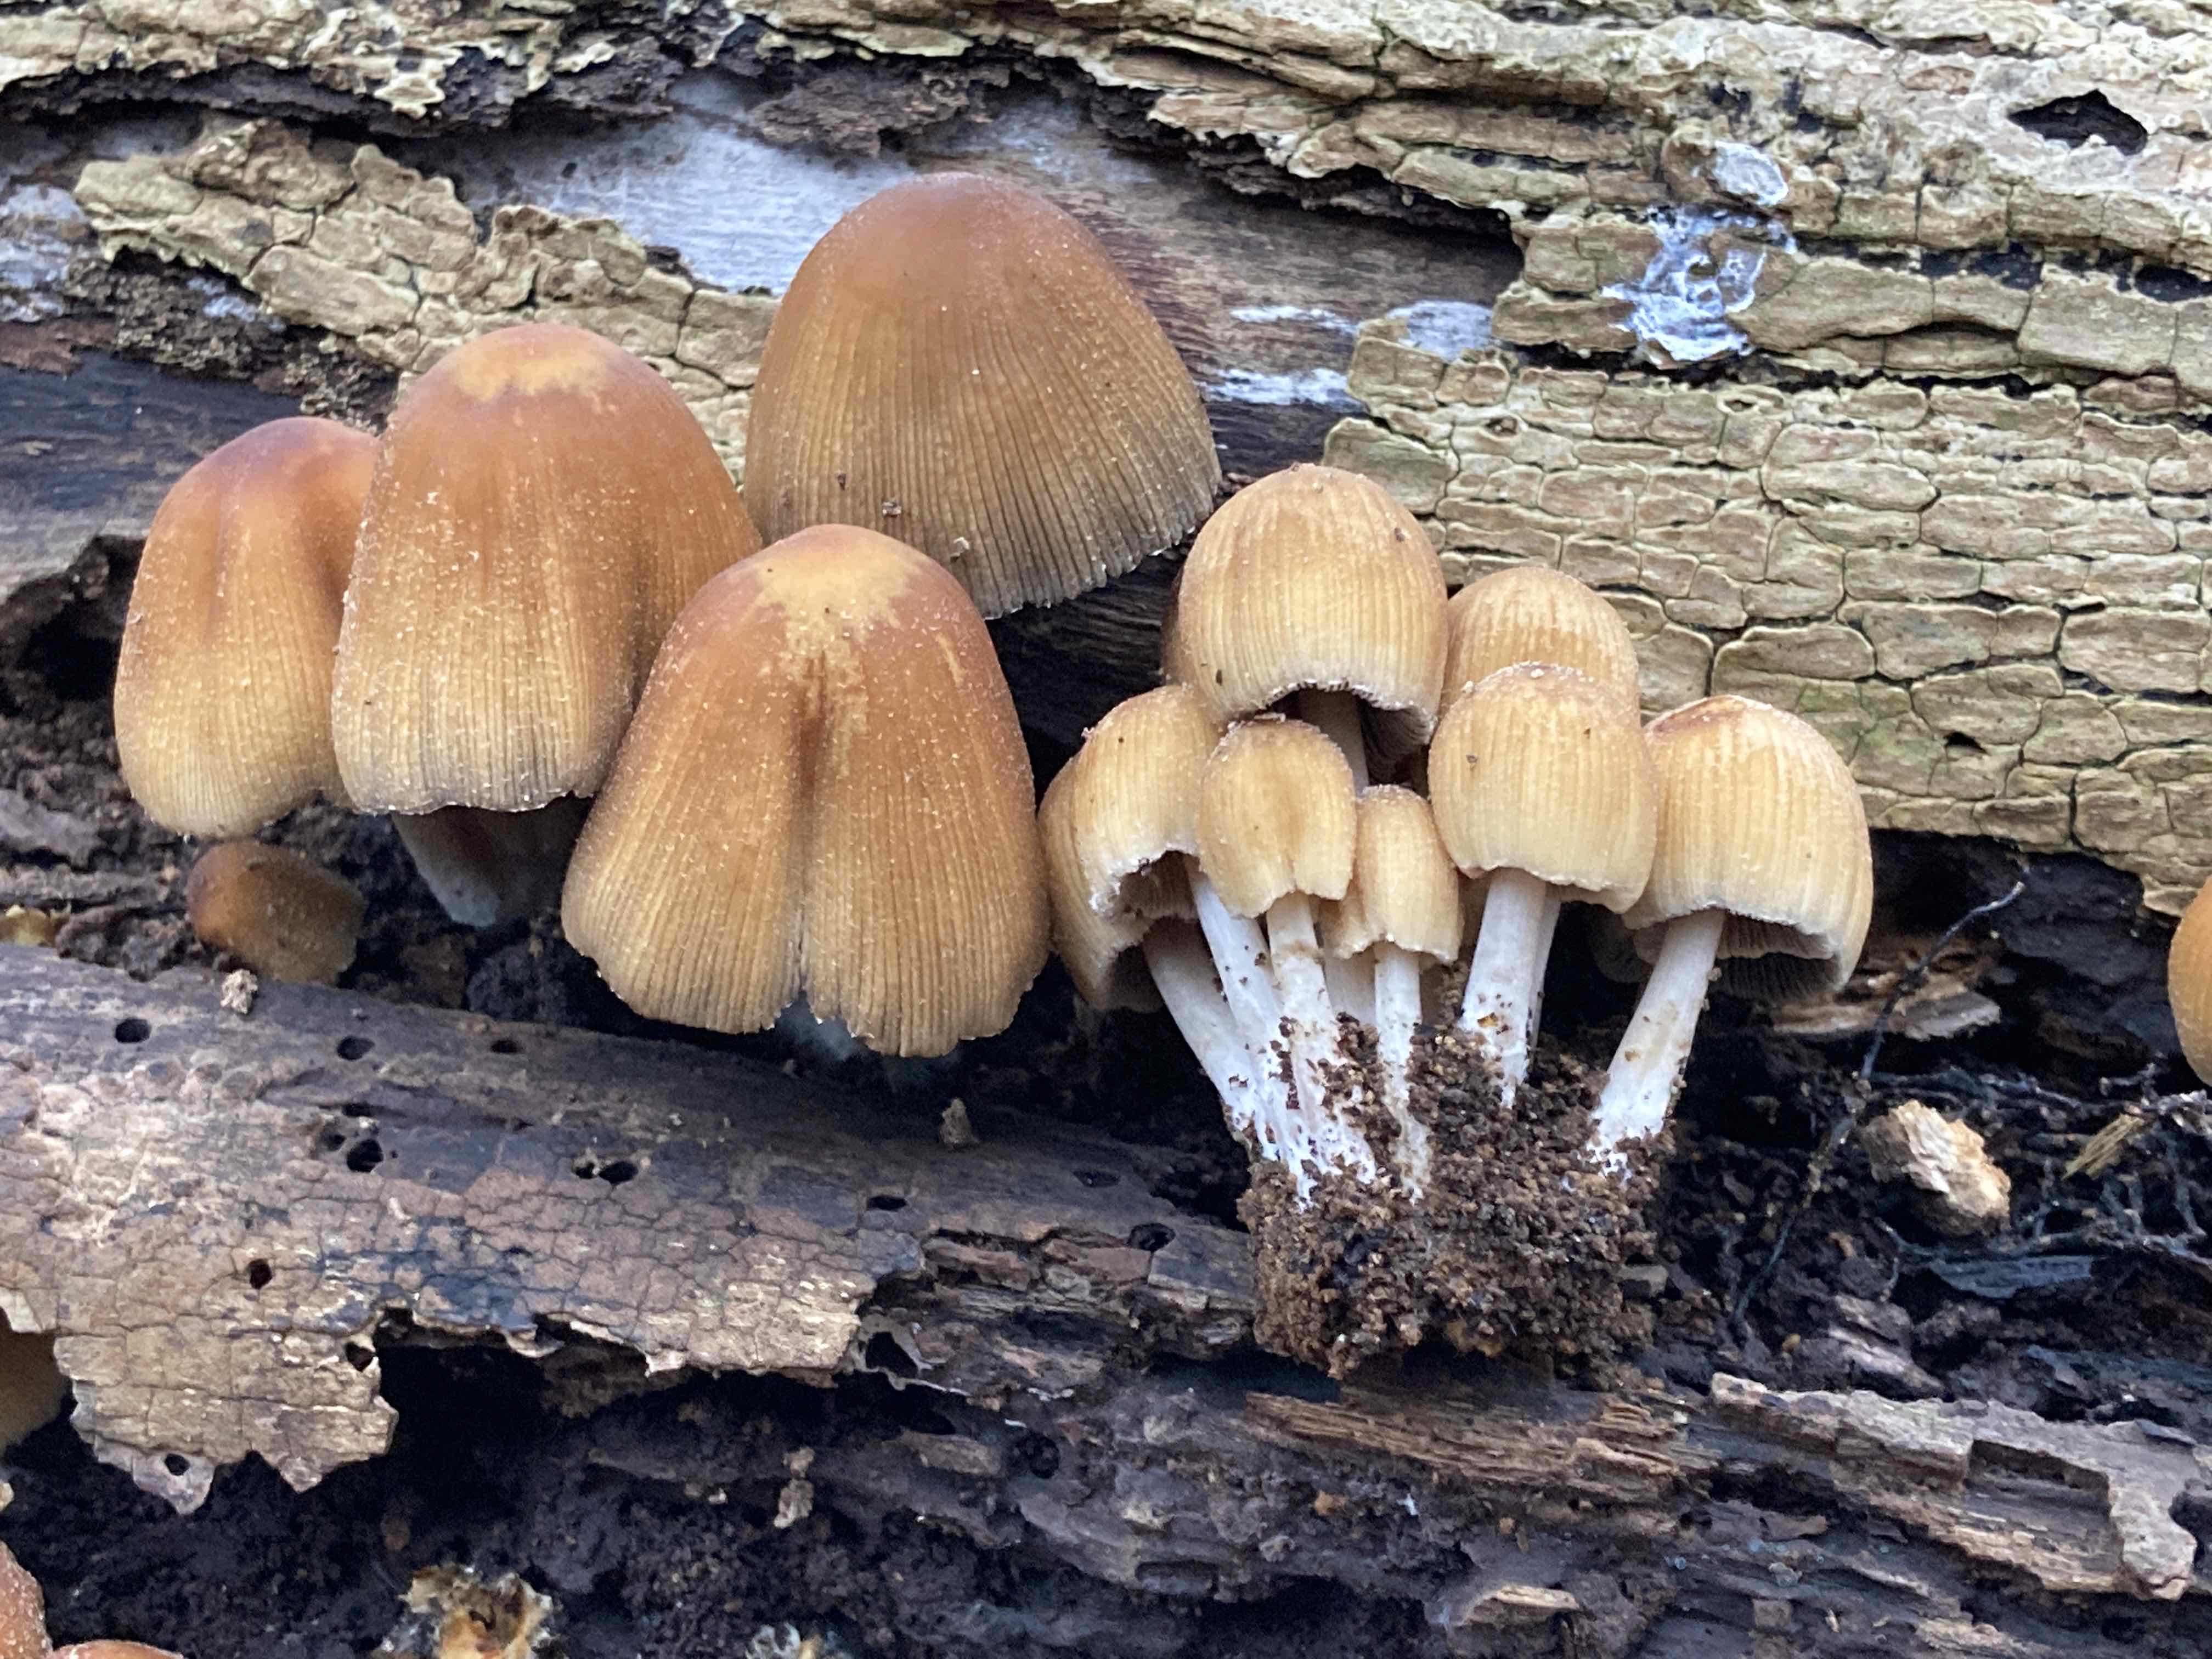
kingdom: Fungi
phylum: Basidiomycota
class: Agaricomycetes
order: Agaricales
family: Psathyrellaceae
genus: Coprinellus
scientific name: Coprinellus micaceus
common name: glimmer-blækhat
